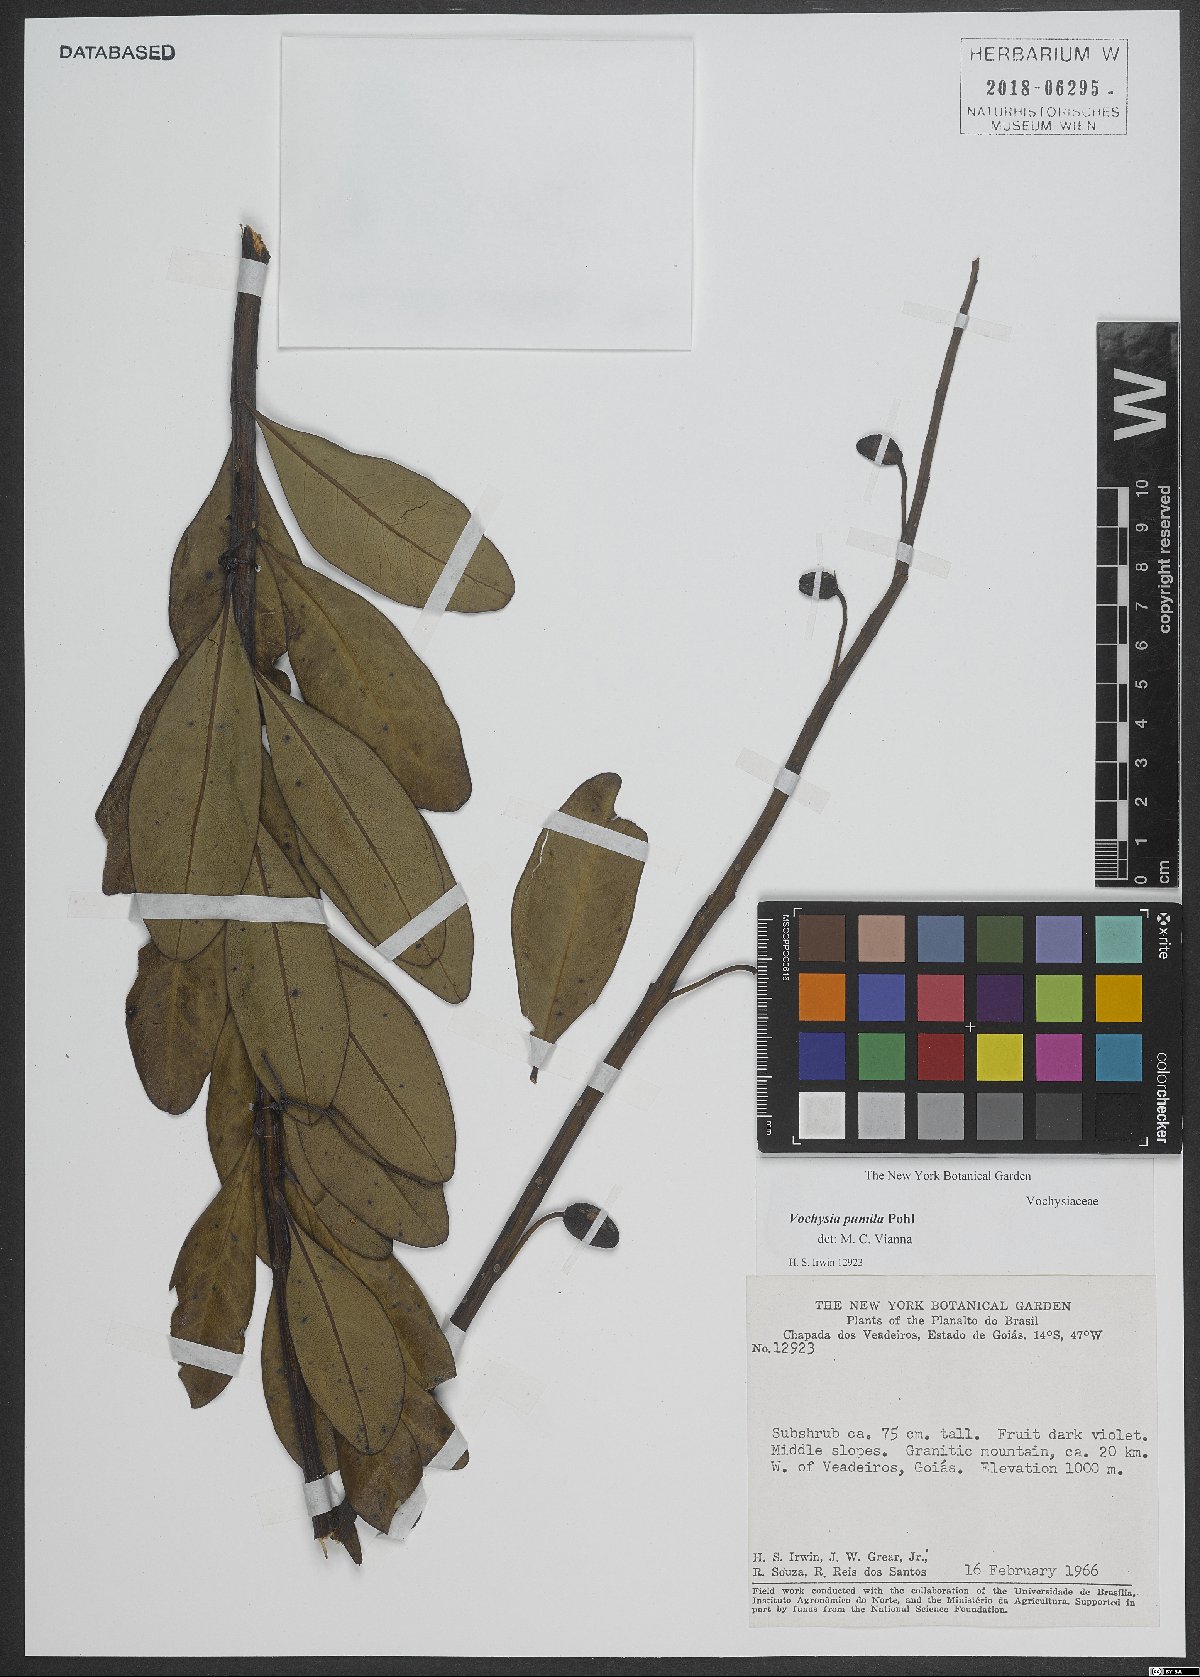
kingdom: Plantae
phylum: Tracheophyta
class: Magnoliopsida
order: Myrtales
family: Vochysiaceae
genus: Vochysia
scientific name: Vochysia pumila
